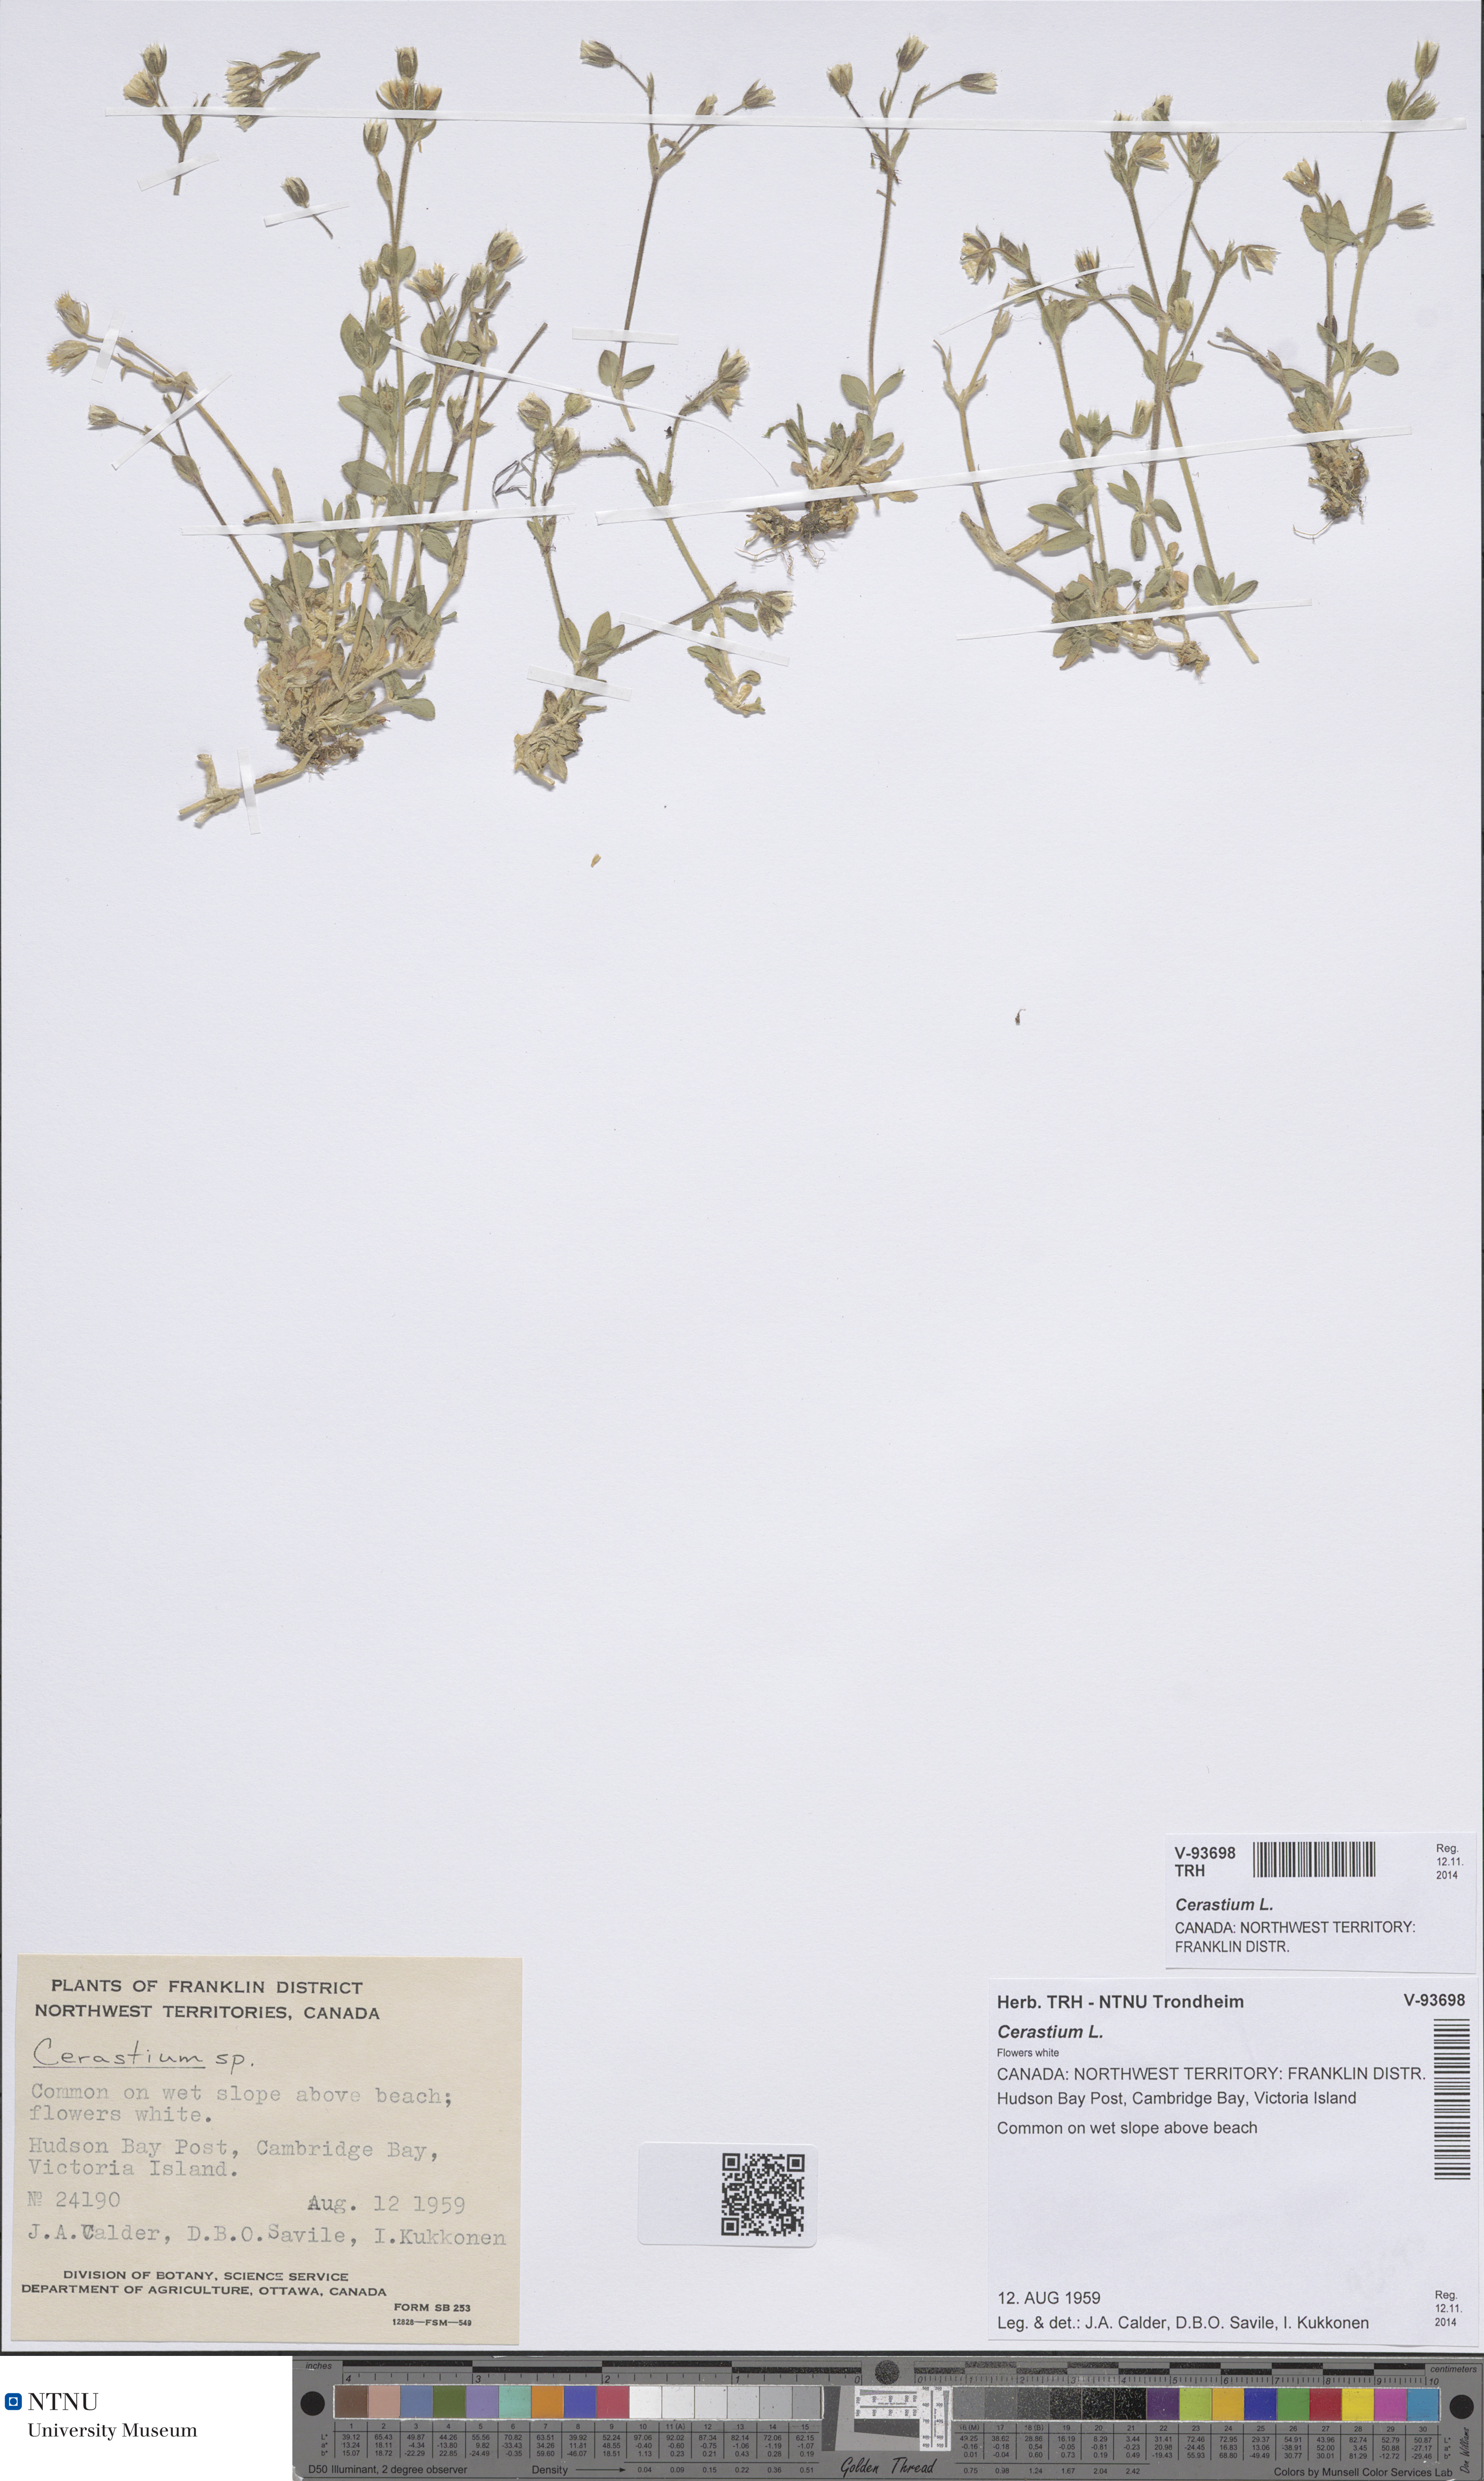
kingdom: Plantae
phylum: Tracheophyta
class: Magnoliopsida
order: Caryophyllales
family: Caryophyllaceae
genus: Cerastium
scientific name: Cerastium
